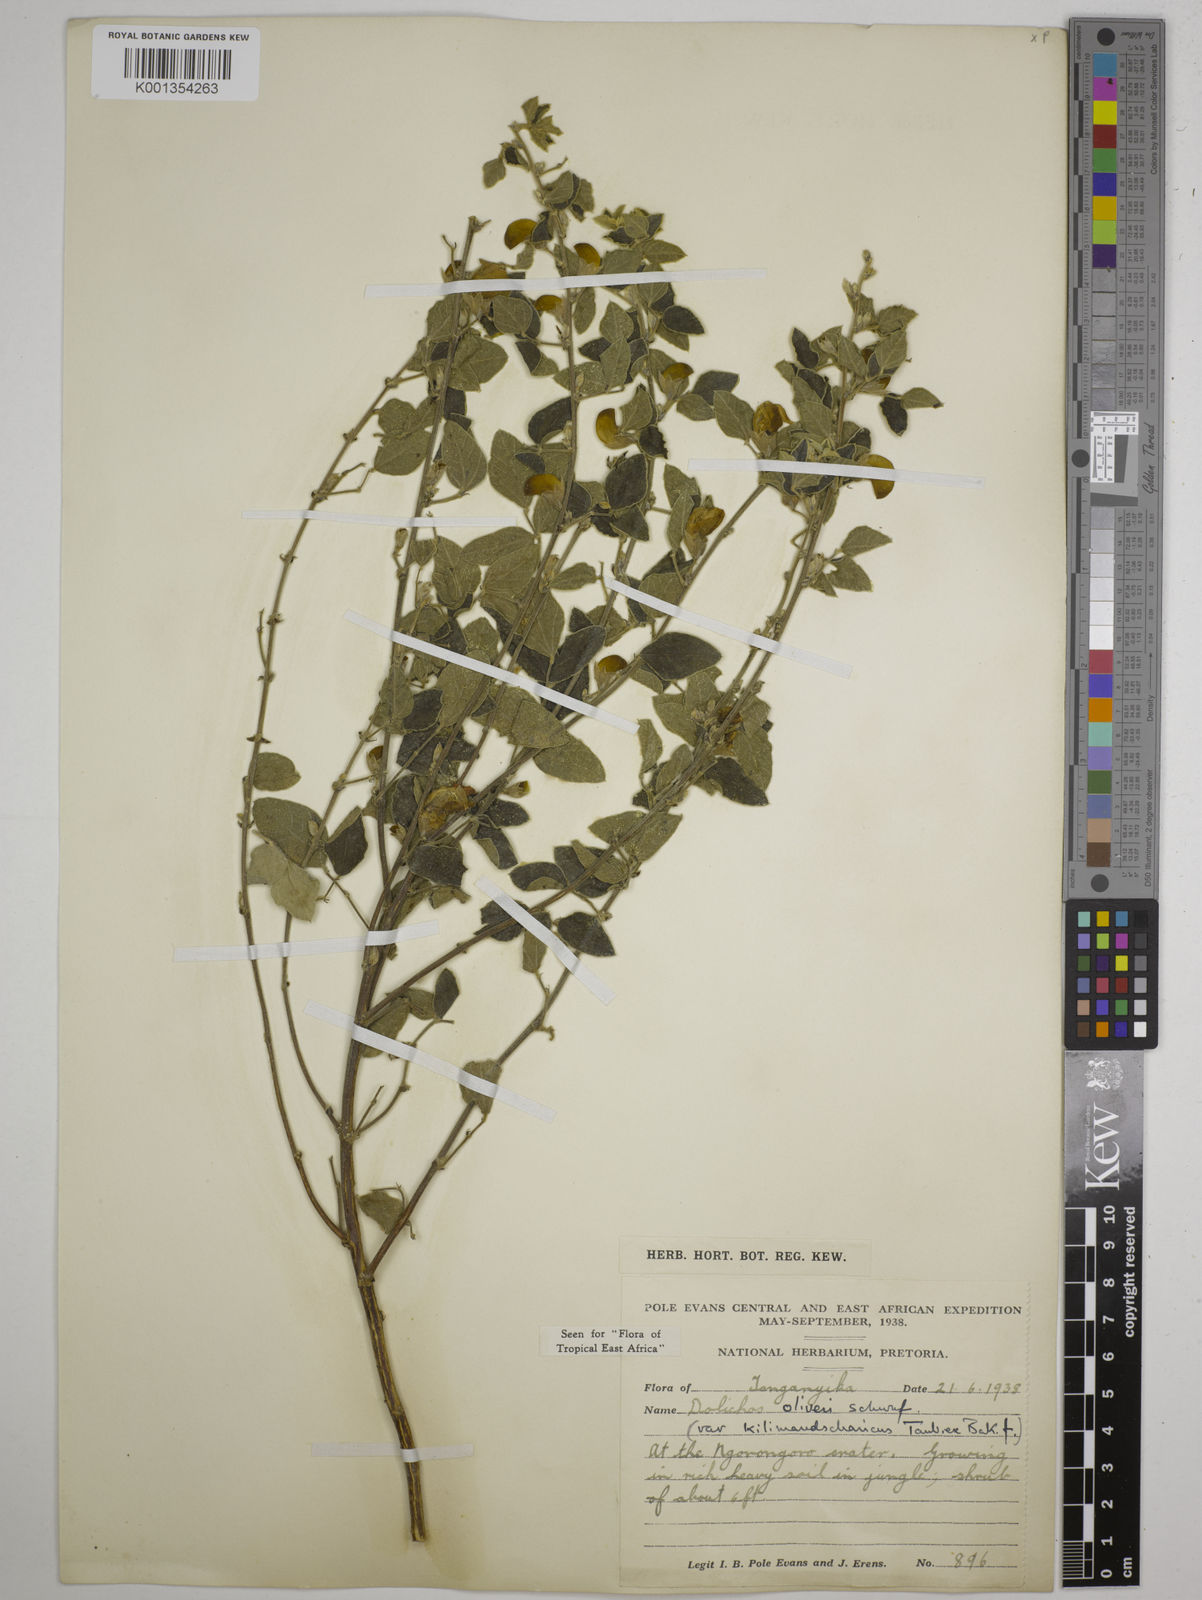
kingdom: Plantae
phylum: Tracheophyta
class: Magnoliopsida
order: Fabales
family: Fabaceae
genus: Dolichos
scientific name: Dolichos
